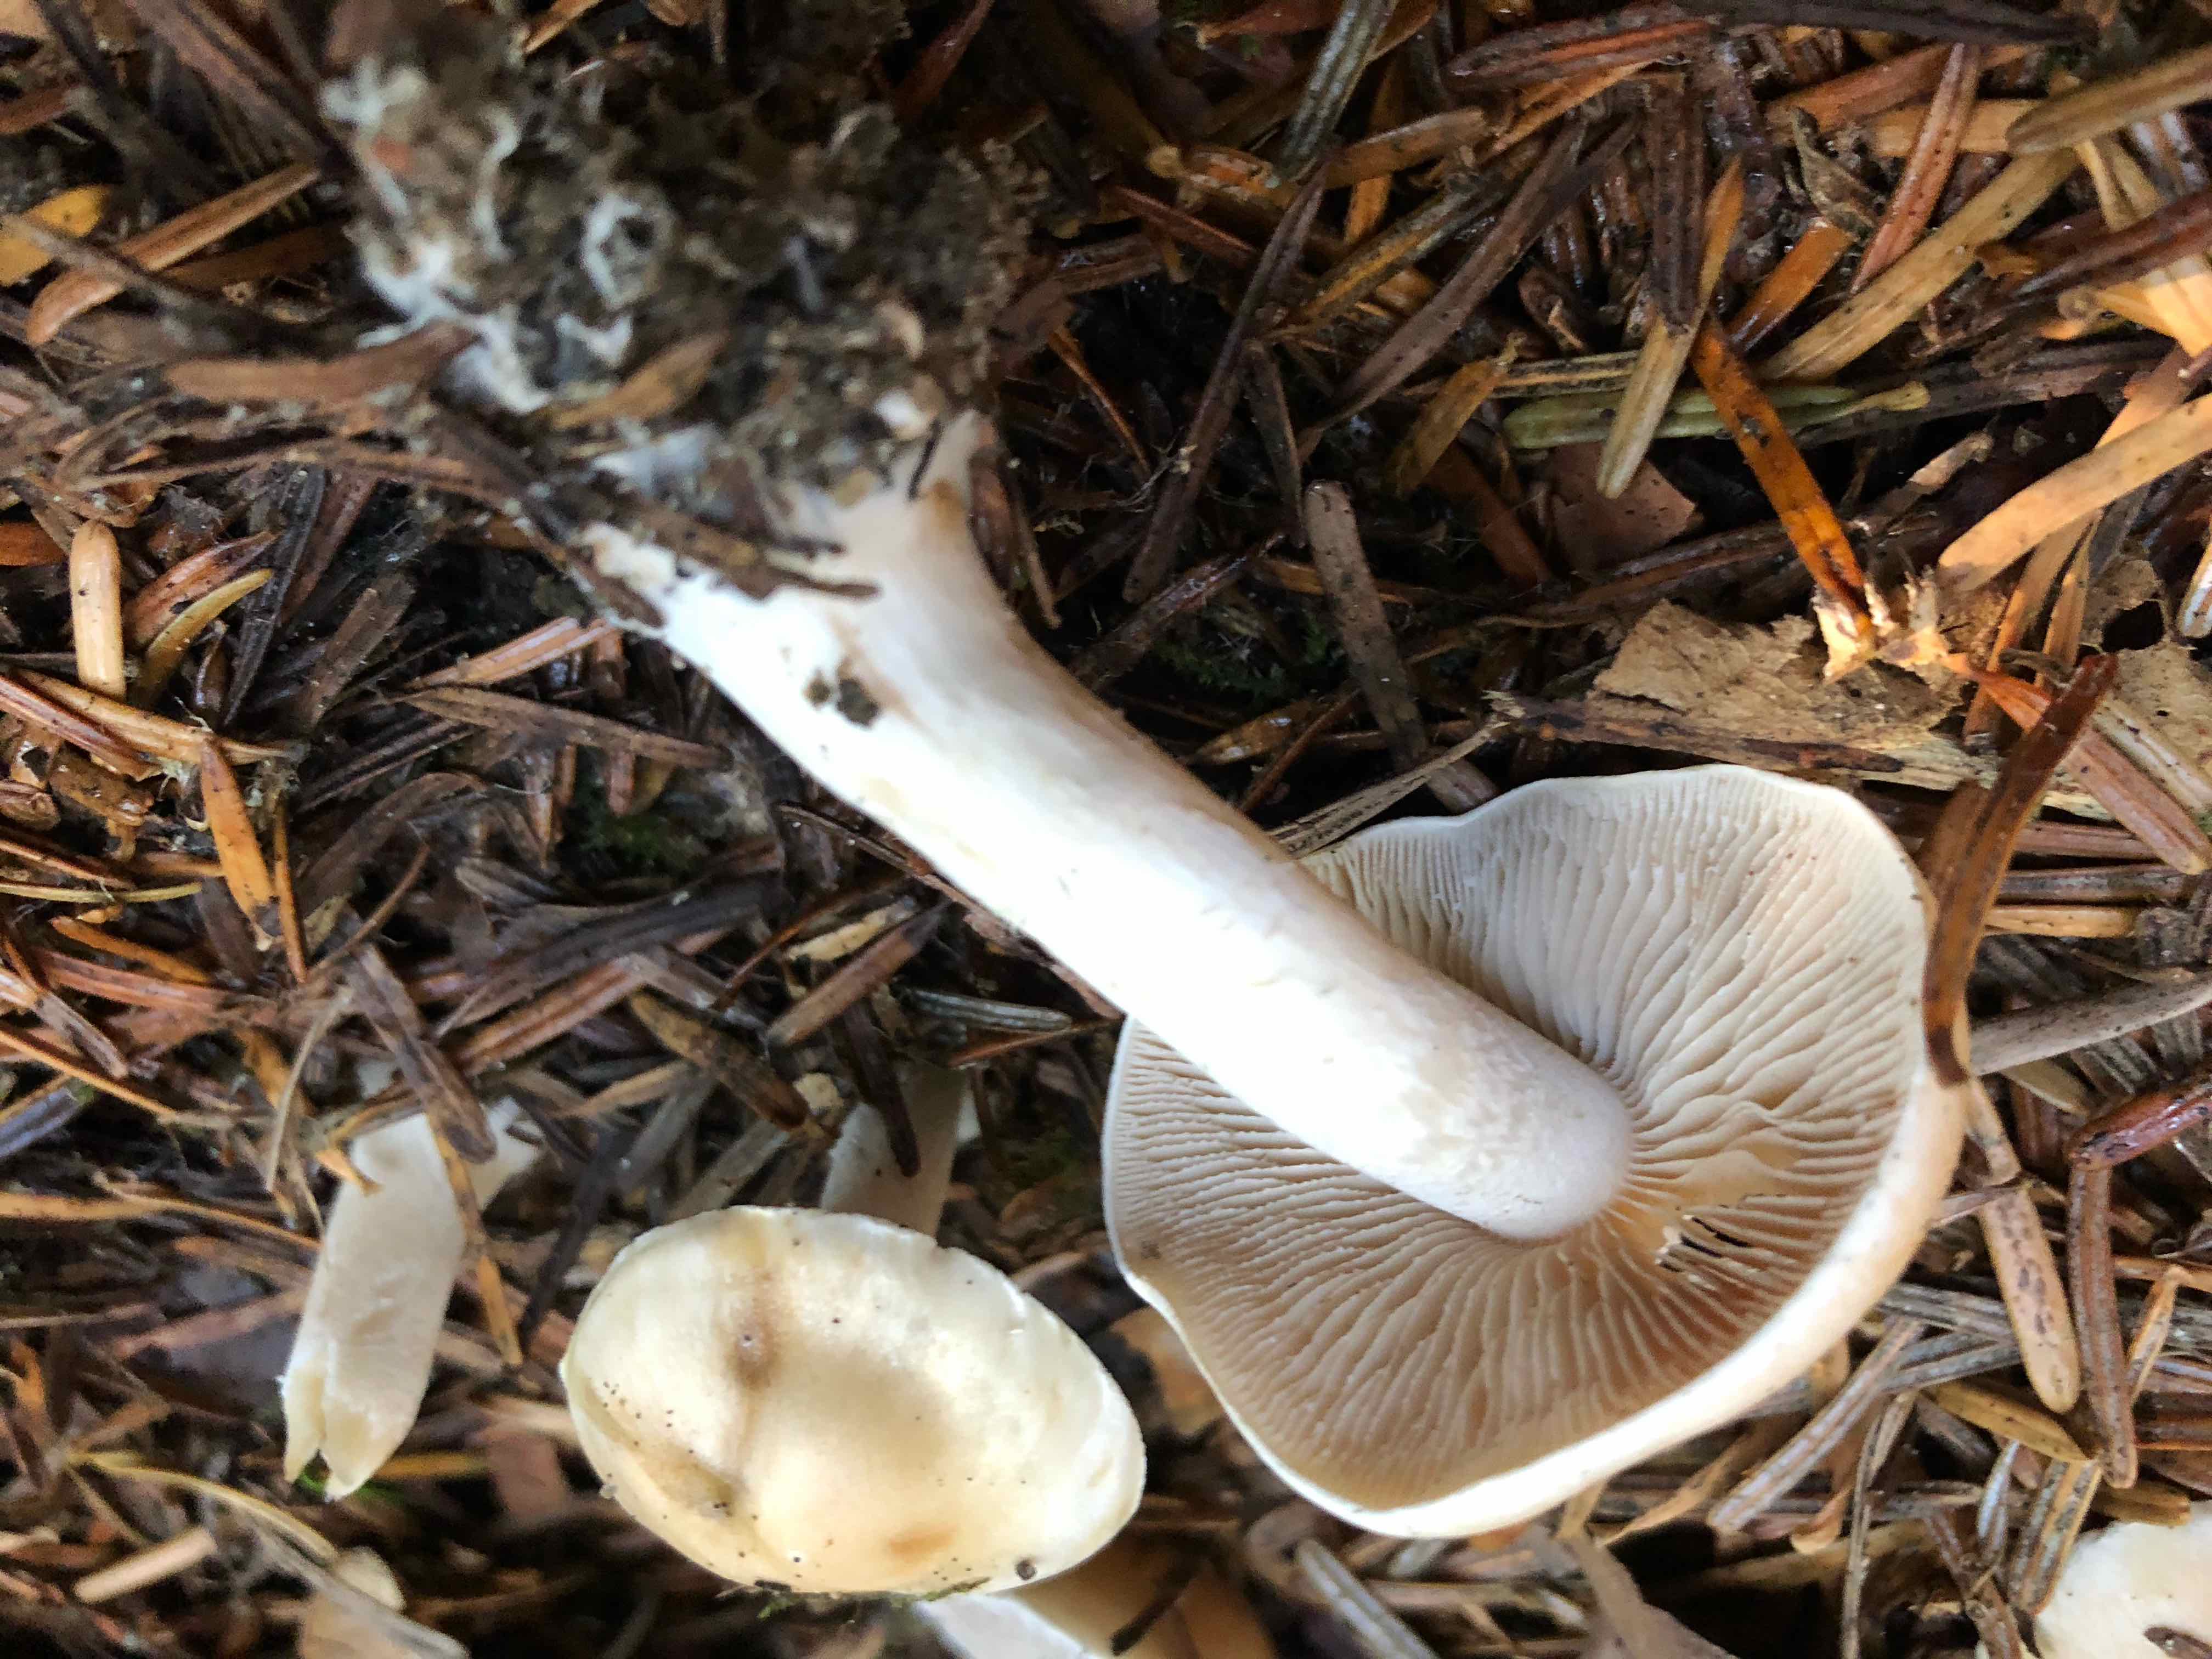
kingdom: Fungi
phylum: Basidiomycota
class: Agaricomycetes
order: Agaricales
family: Hymenogastraceae
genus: Hebeloma
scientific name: Hebeloma
